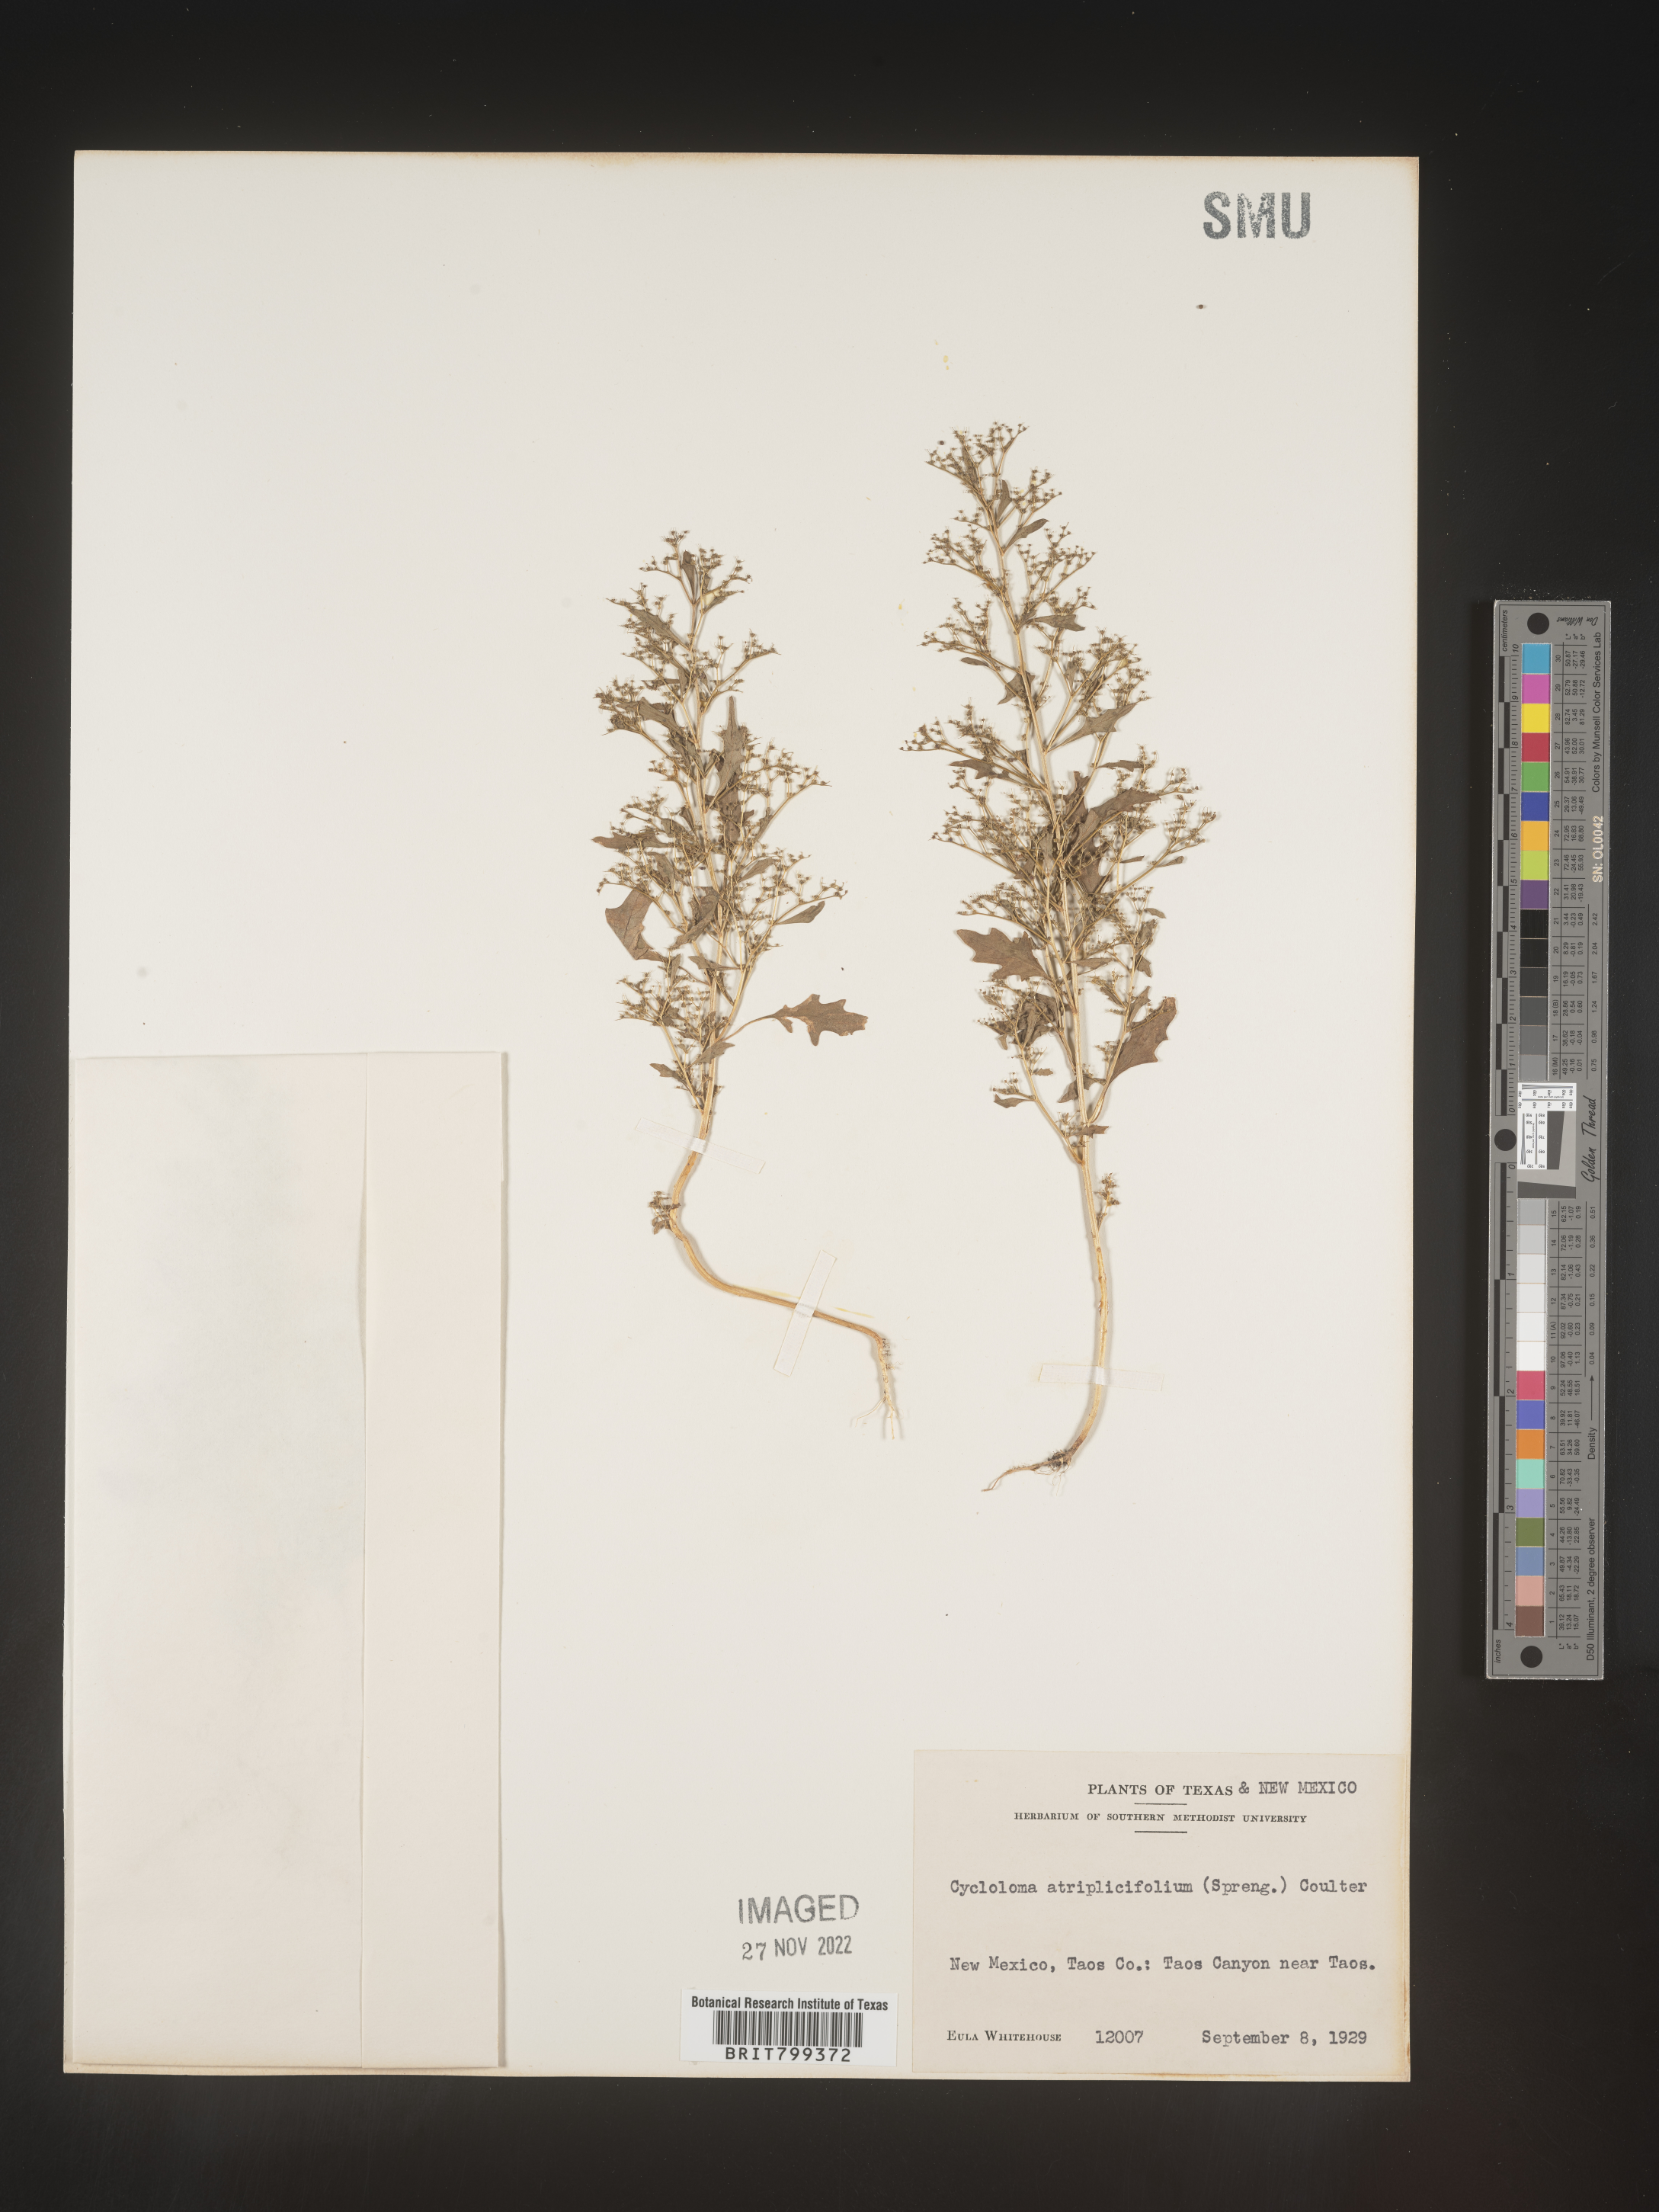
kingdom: Plantae
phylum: Tracheophyta
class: Magnoliopsida
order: Caryophyllales
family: Amaranthaceae
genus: Dysphania
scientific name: Dysphania atriplicifolia
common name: Plains tumbleweed
